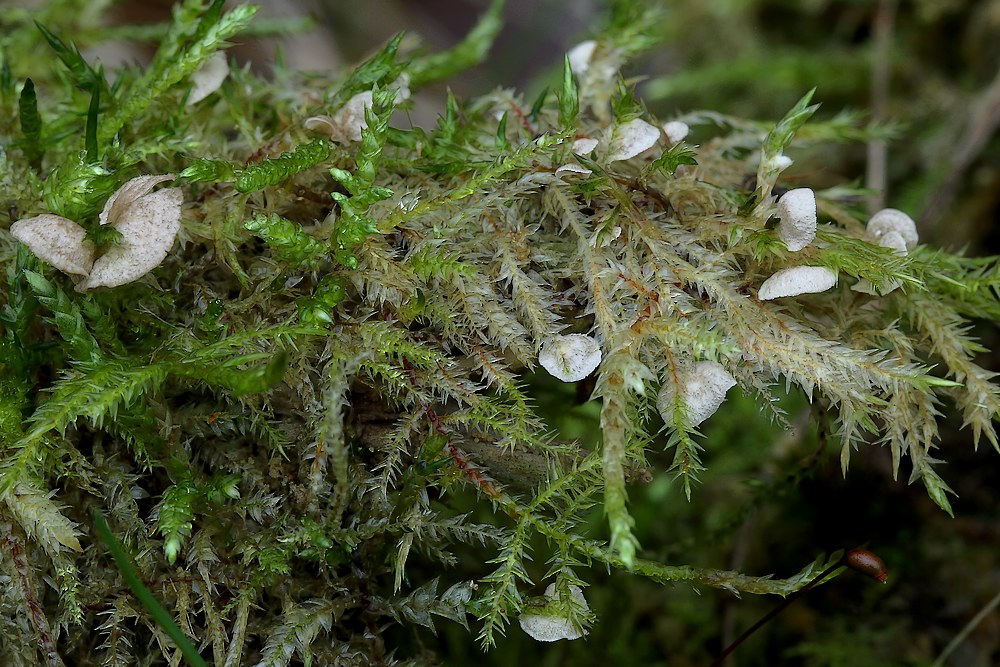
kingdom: Fungi
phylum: Basidiomycota
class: Agaricomycetes
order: Agaricales
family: Hygrophoraceae
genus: Arrhenia
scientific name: Arrhenia retiruga
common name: lille fontænehat
